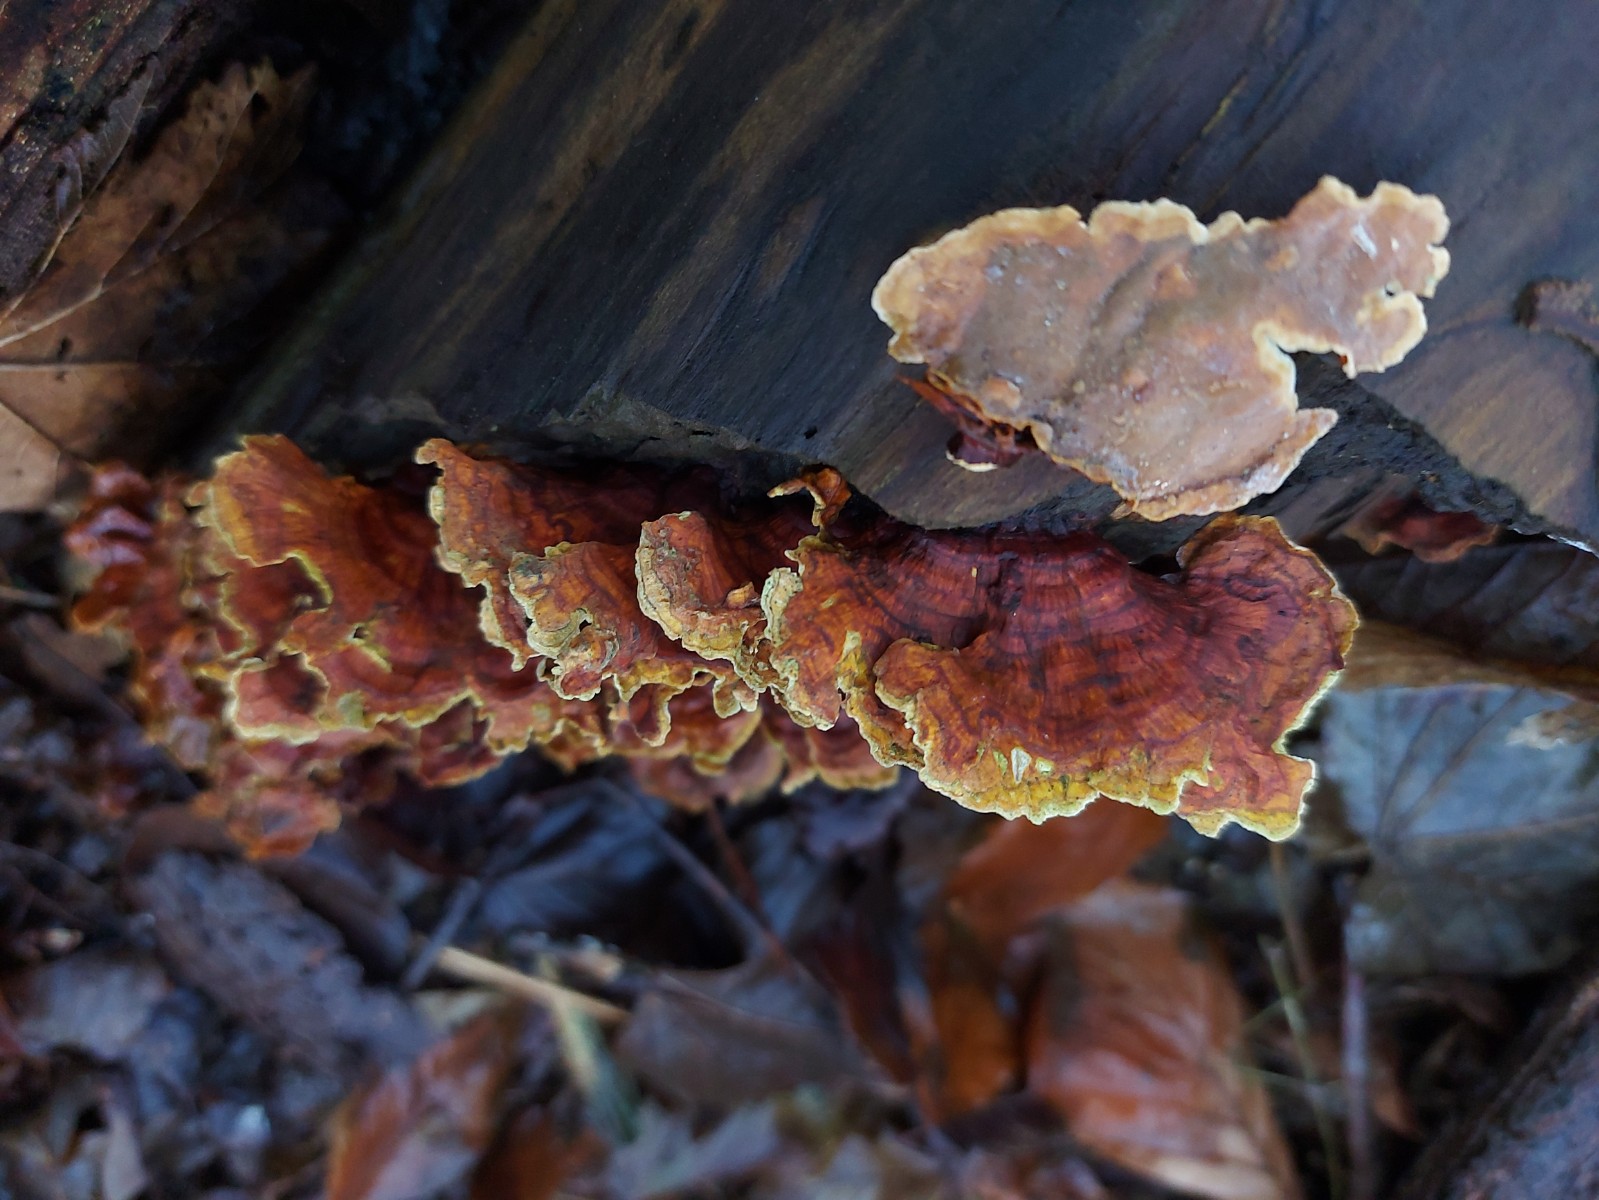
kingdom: Fungi
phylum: Basidiomycota
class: Agaricomycetes
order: Russulales
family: Stereaceae
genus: Stereum
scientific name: Stereum subtomentosum
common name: smuk lædersvamp
